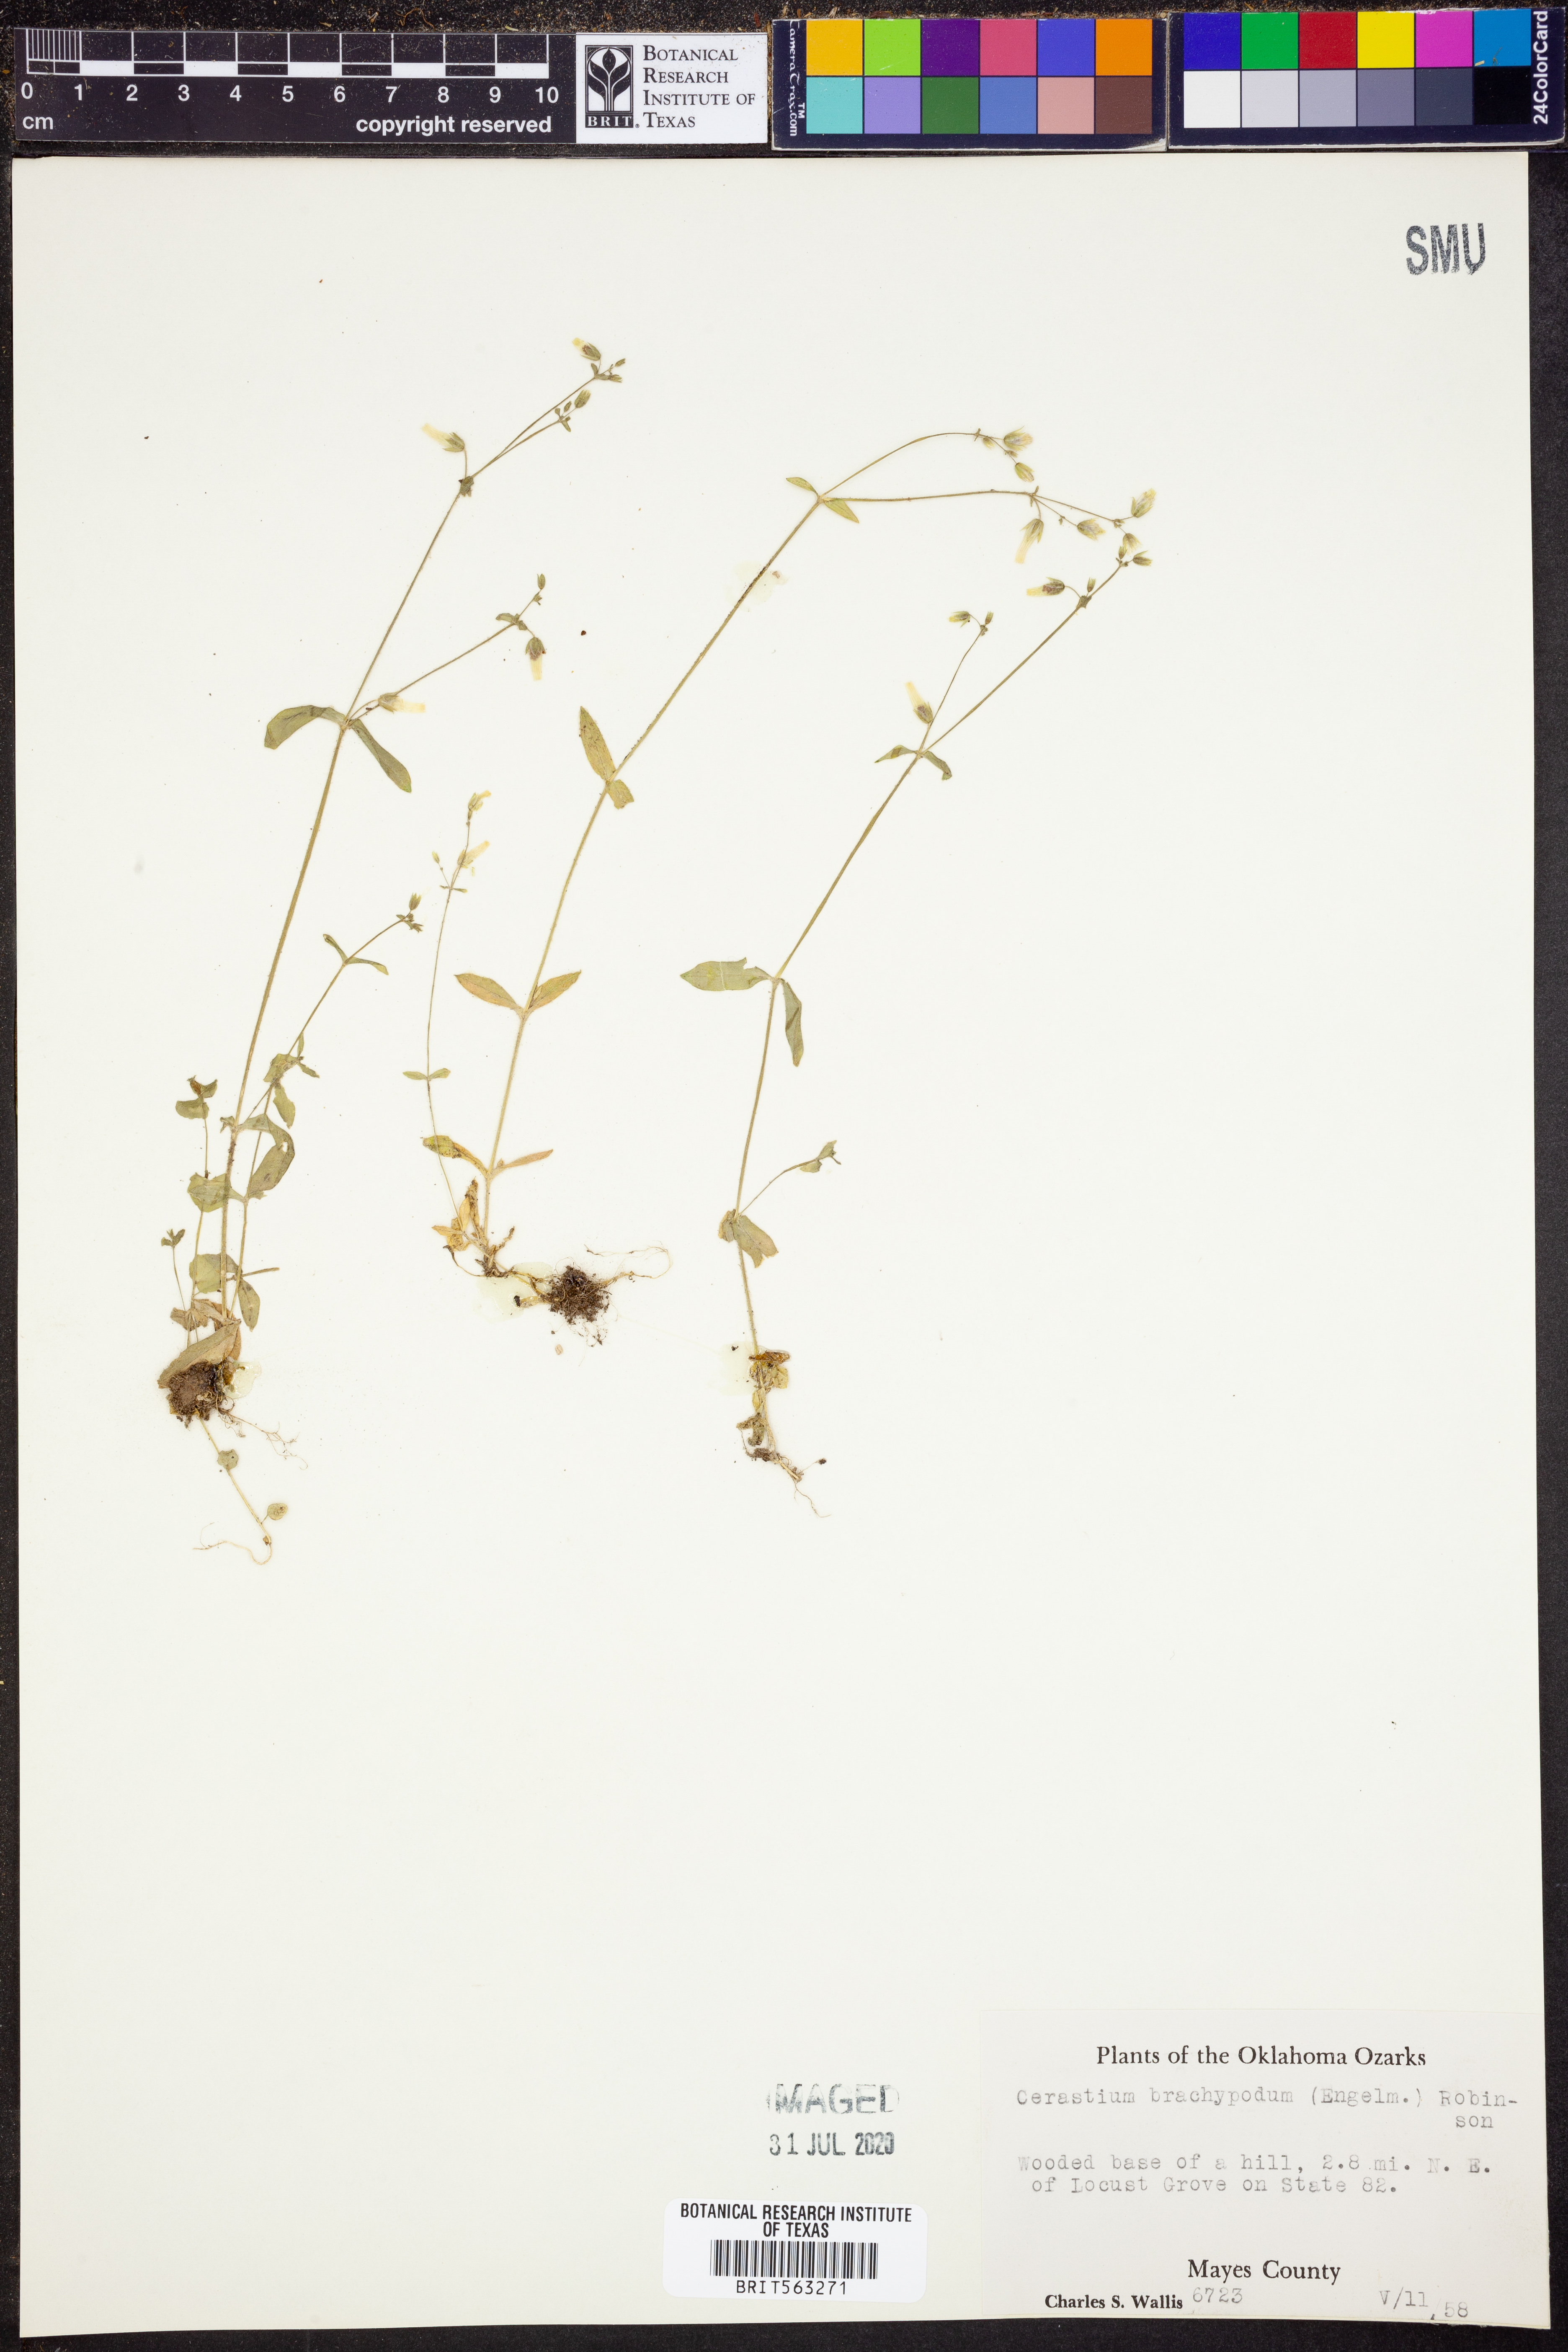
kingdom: Plantae
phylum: Tracheophyta
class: Magnoliopsida
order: Caryophyllales
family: Caryophyllaceae
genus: Cerastium
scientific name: Cerastium brachypodum
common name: Short-pedicelled nodding chickweed
